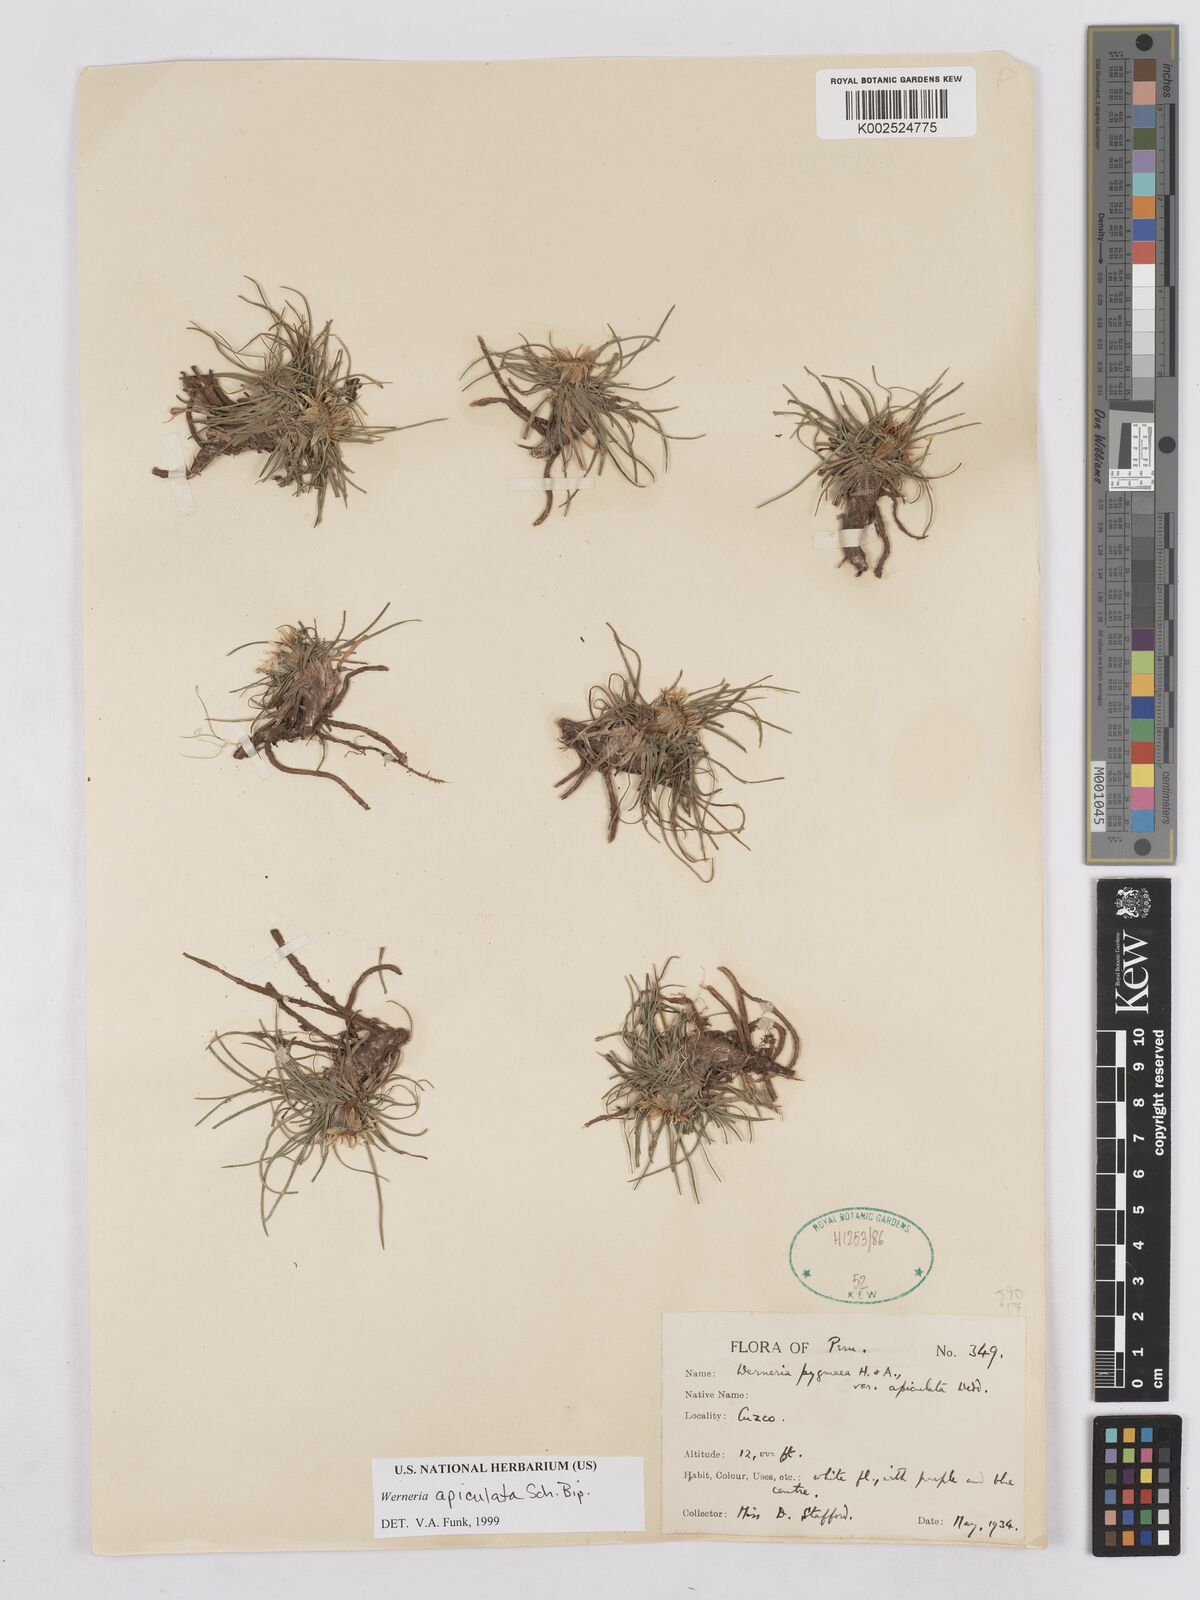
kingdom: Plantae
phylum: Tracheophyta
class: Magnoliopsida
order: Asterales
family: Asteraceae
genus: Rockhausenia
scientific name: Rockhausenia apiculata
